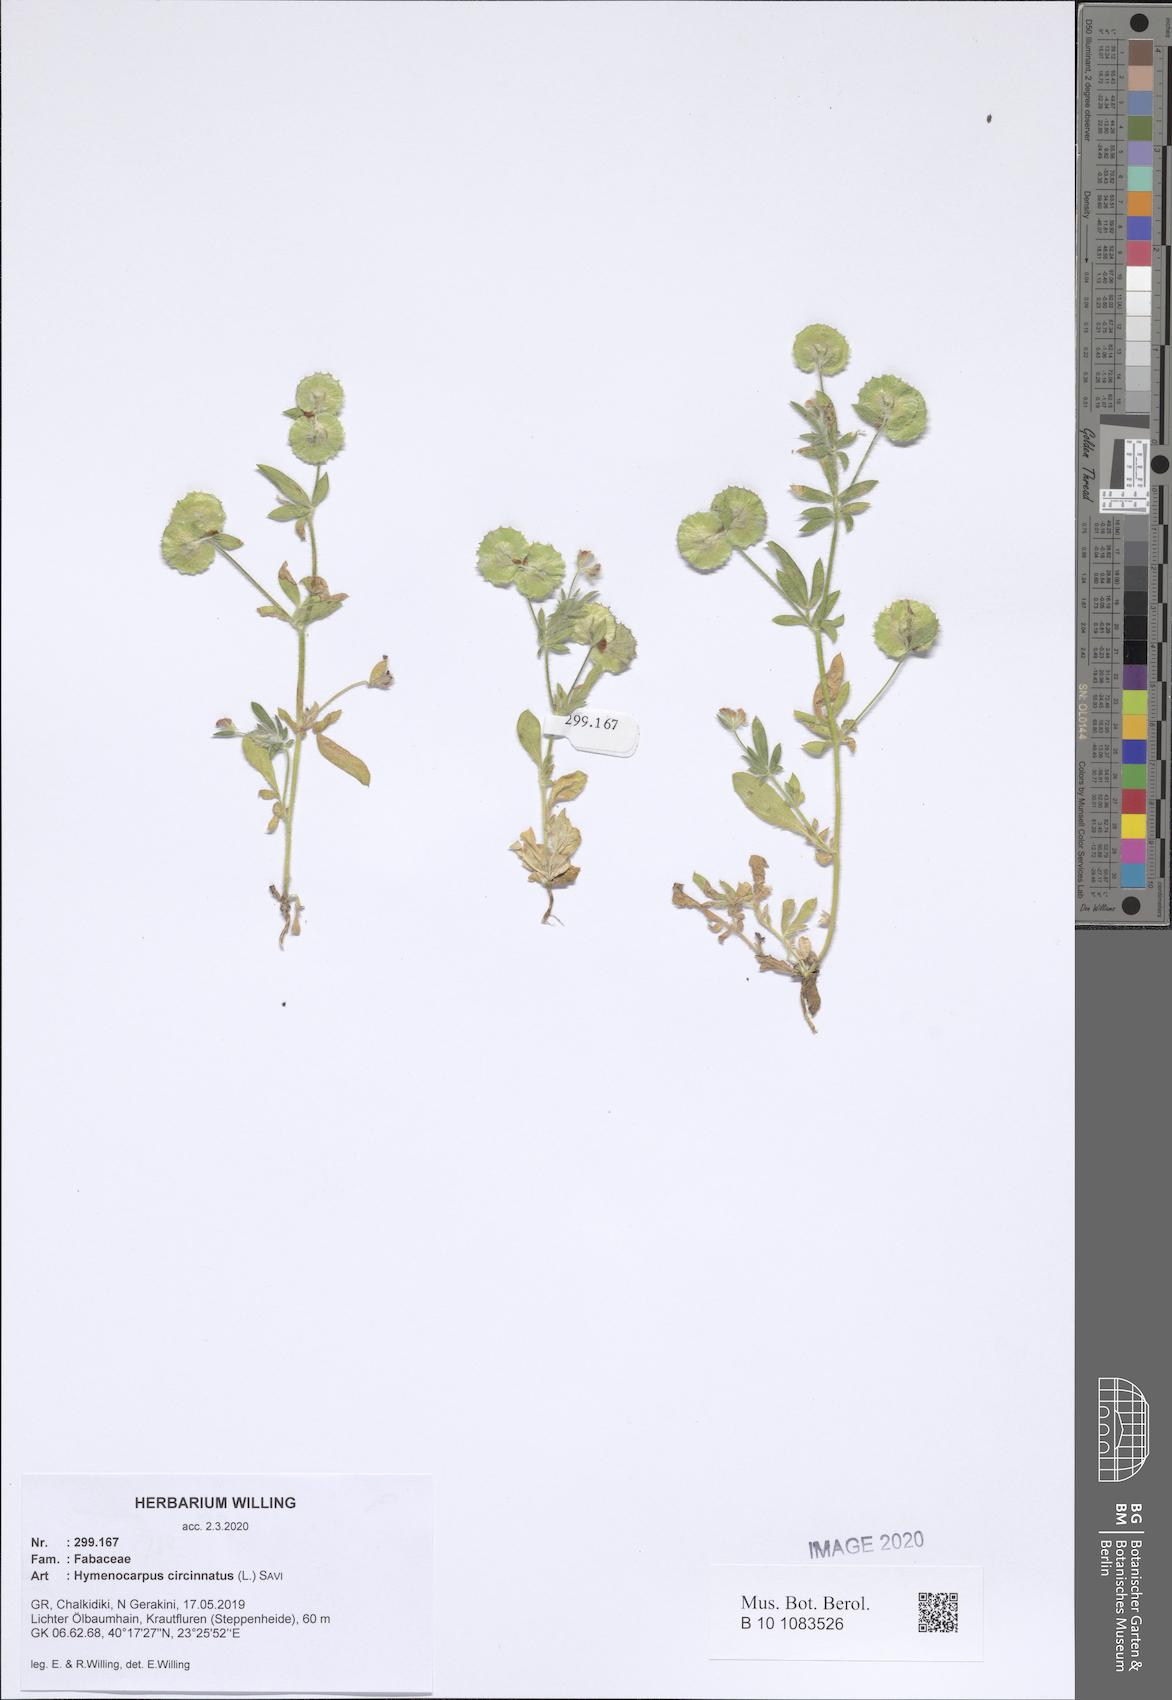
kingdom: Plantae
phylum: Tracheophyta
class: Magnoliopsida
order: Fabales
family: Fabaceae
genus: Anthyllis
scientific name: Anthyllis circinnata
